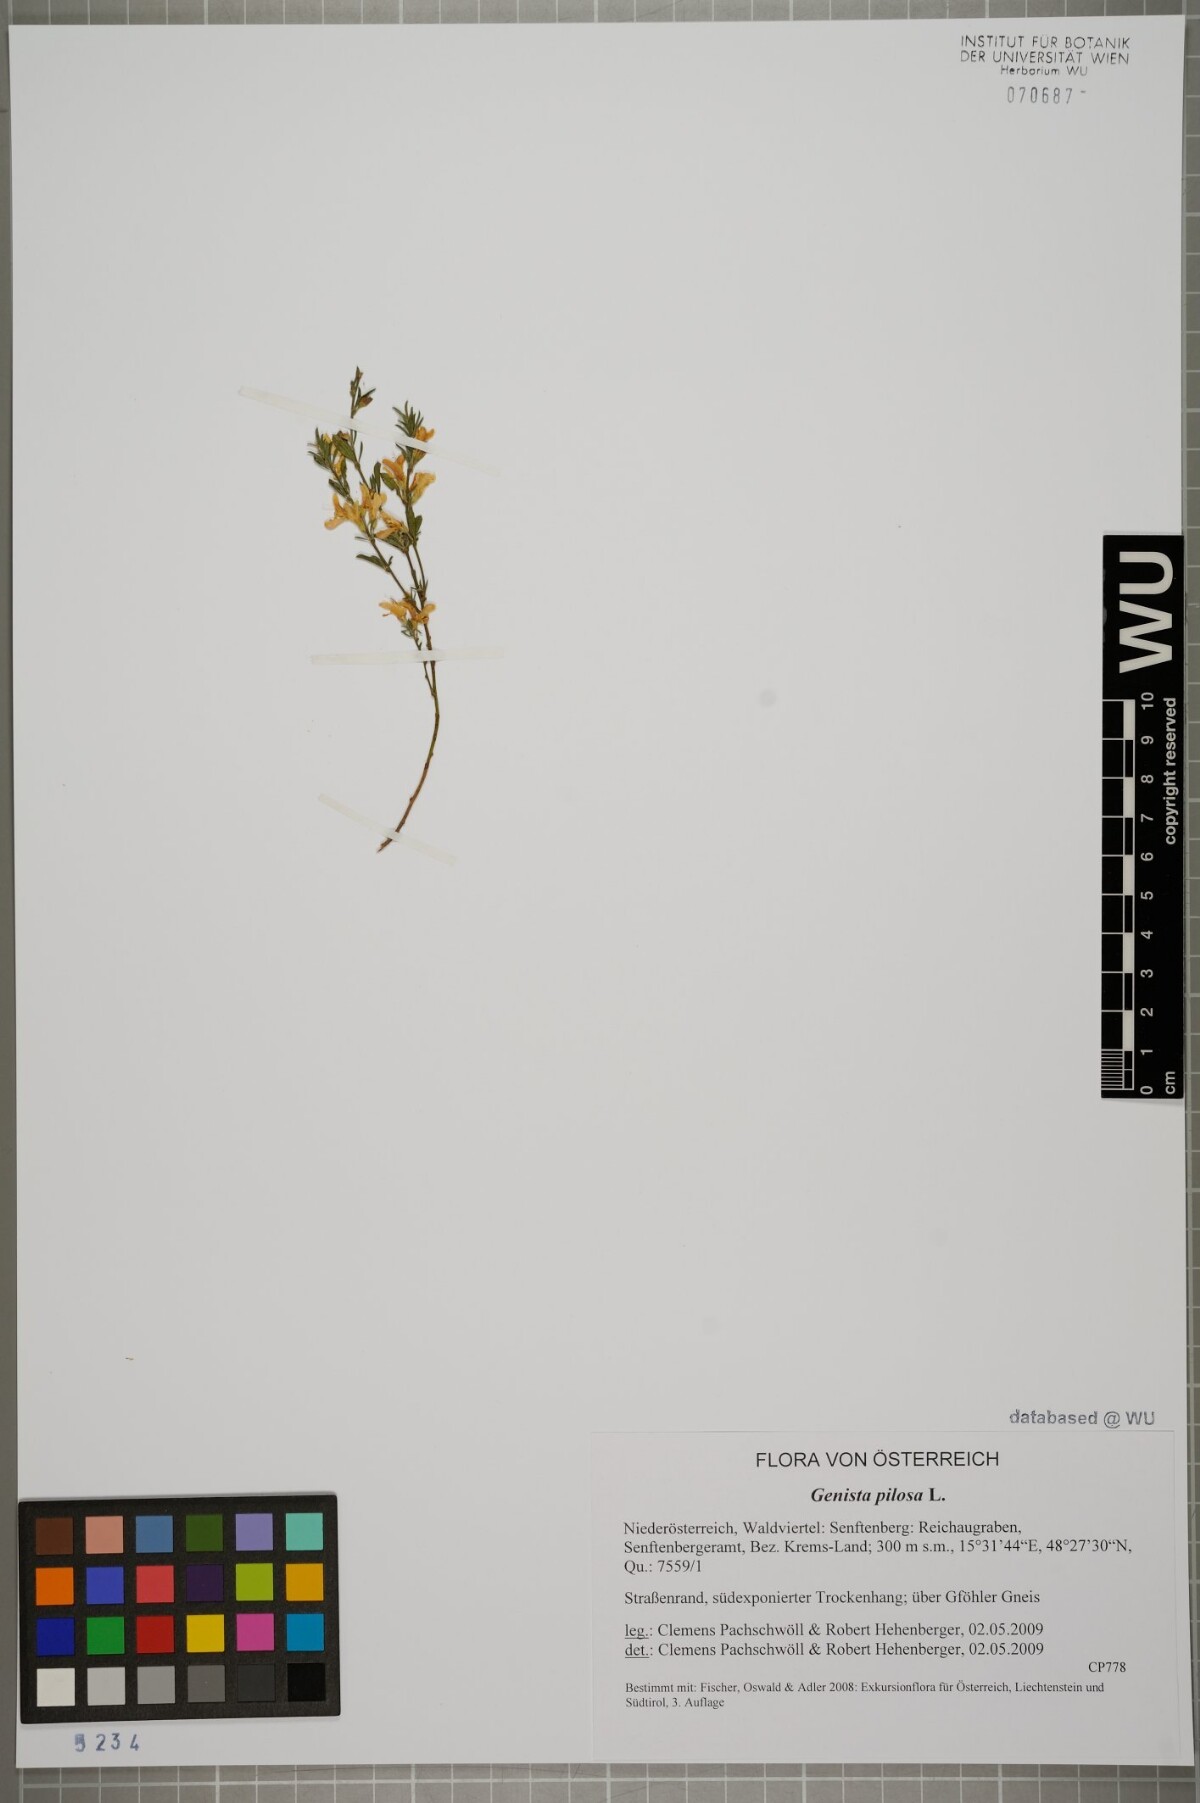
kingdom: Plantae
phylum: Tracheophyta
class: Magnoliopsida
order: Fabales
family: Fabaceae
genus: Genista
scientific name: Genista pilosa
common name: Hairy greenweed
